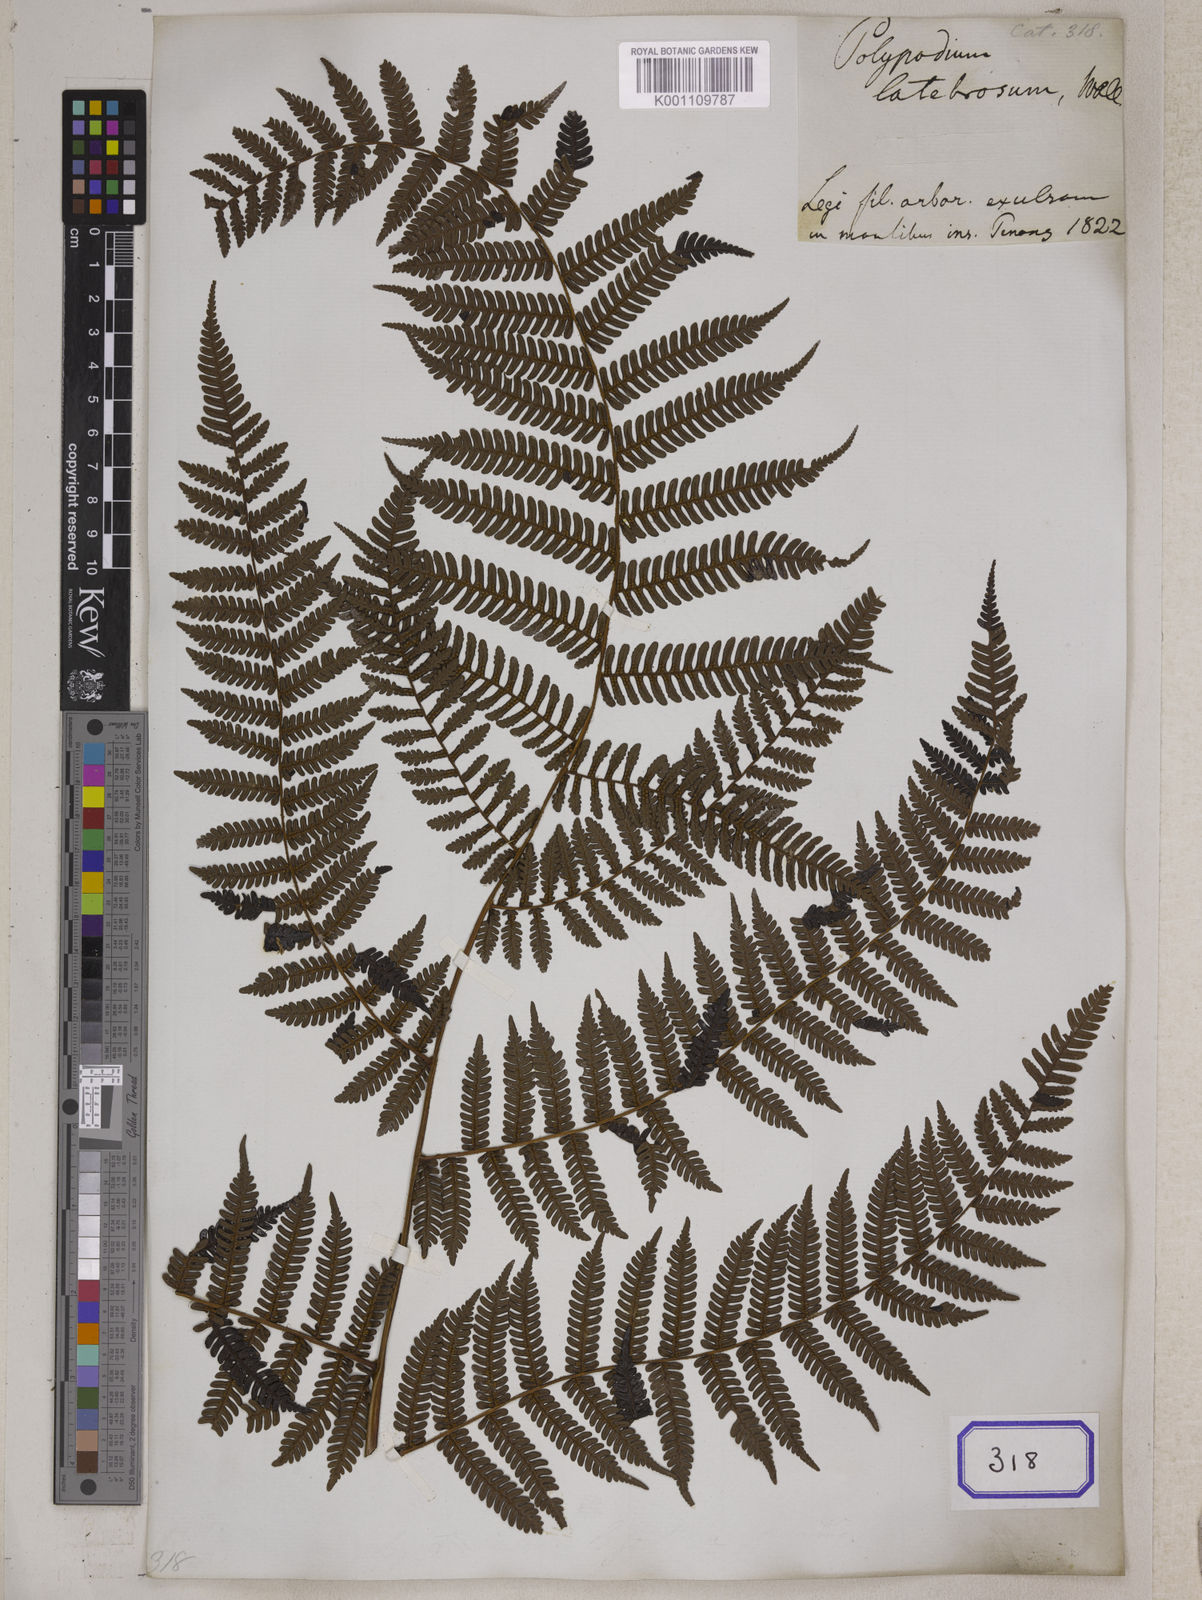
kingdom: Plantae
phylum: Tracheophyta
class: Polypodiopsida
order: Polypodiales
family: Polypodiaceae
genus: Polypodium
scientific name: Polypodium
